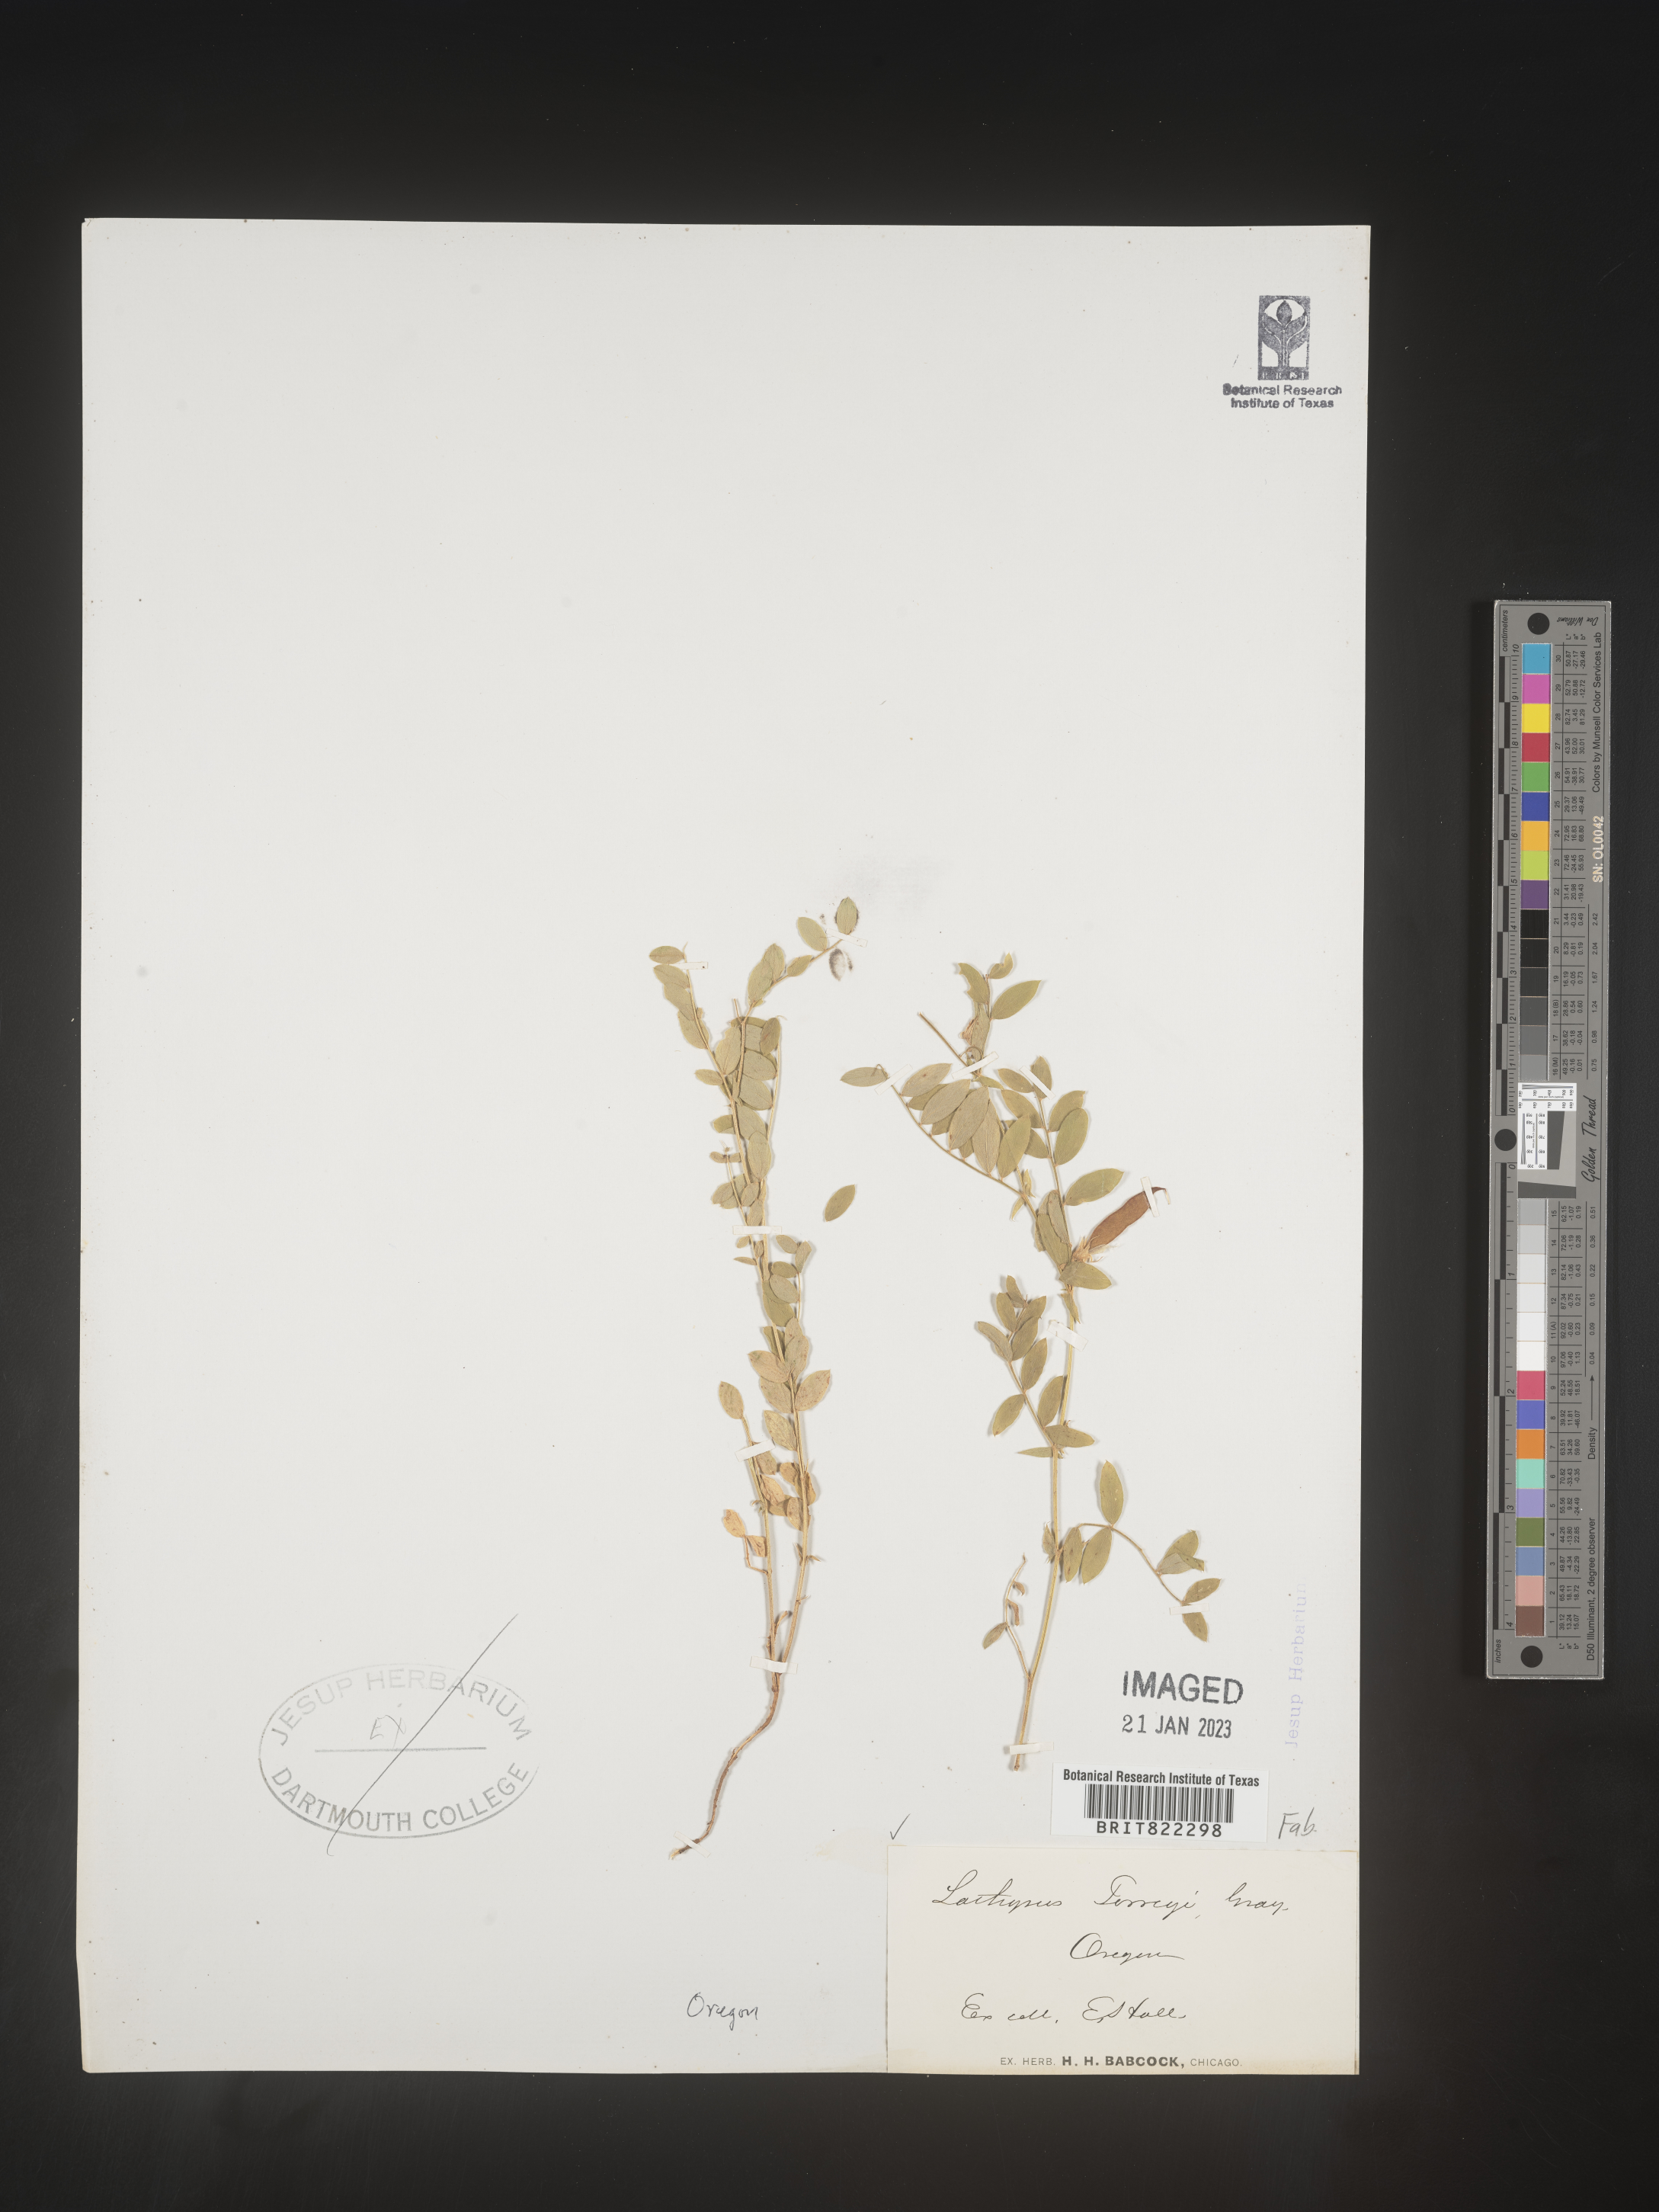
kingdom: Plantae
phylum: Tracheophyta
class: Magnoliopsida
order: Fabales
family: Fabaceae
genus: Lathyrus
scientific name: Lathyrus
